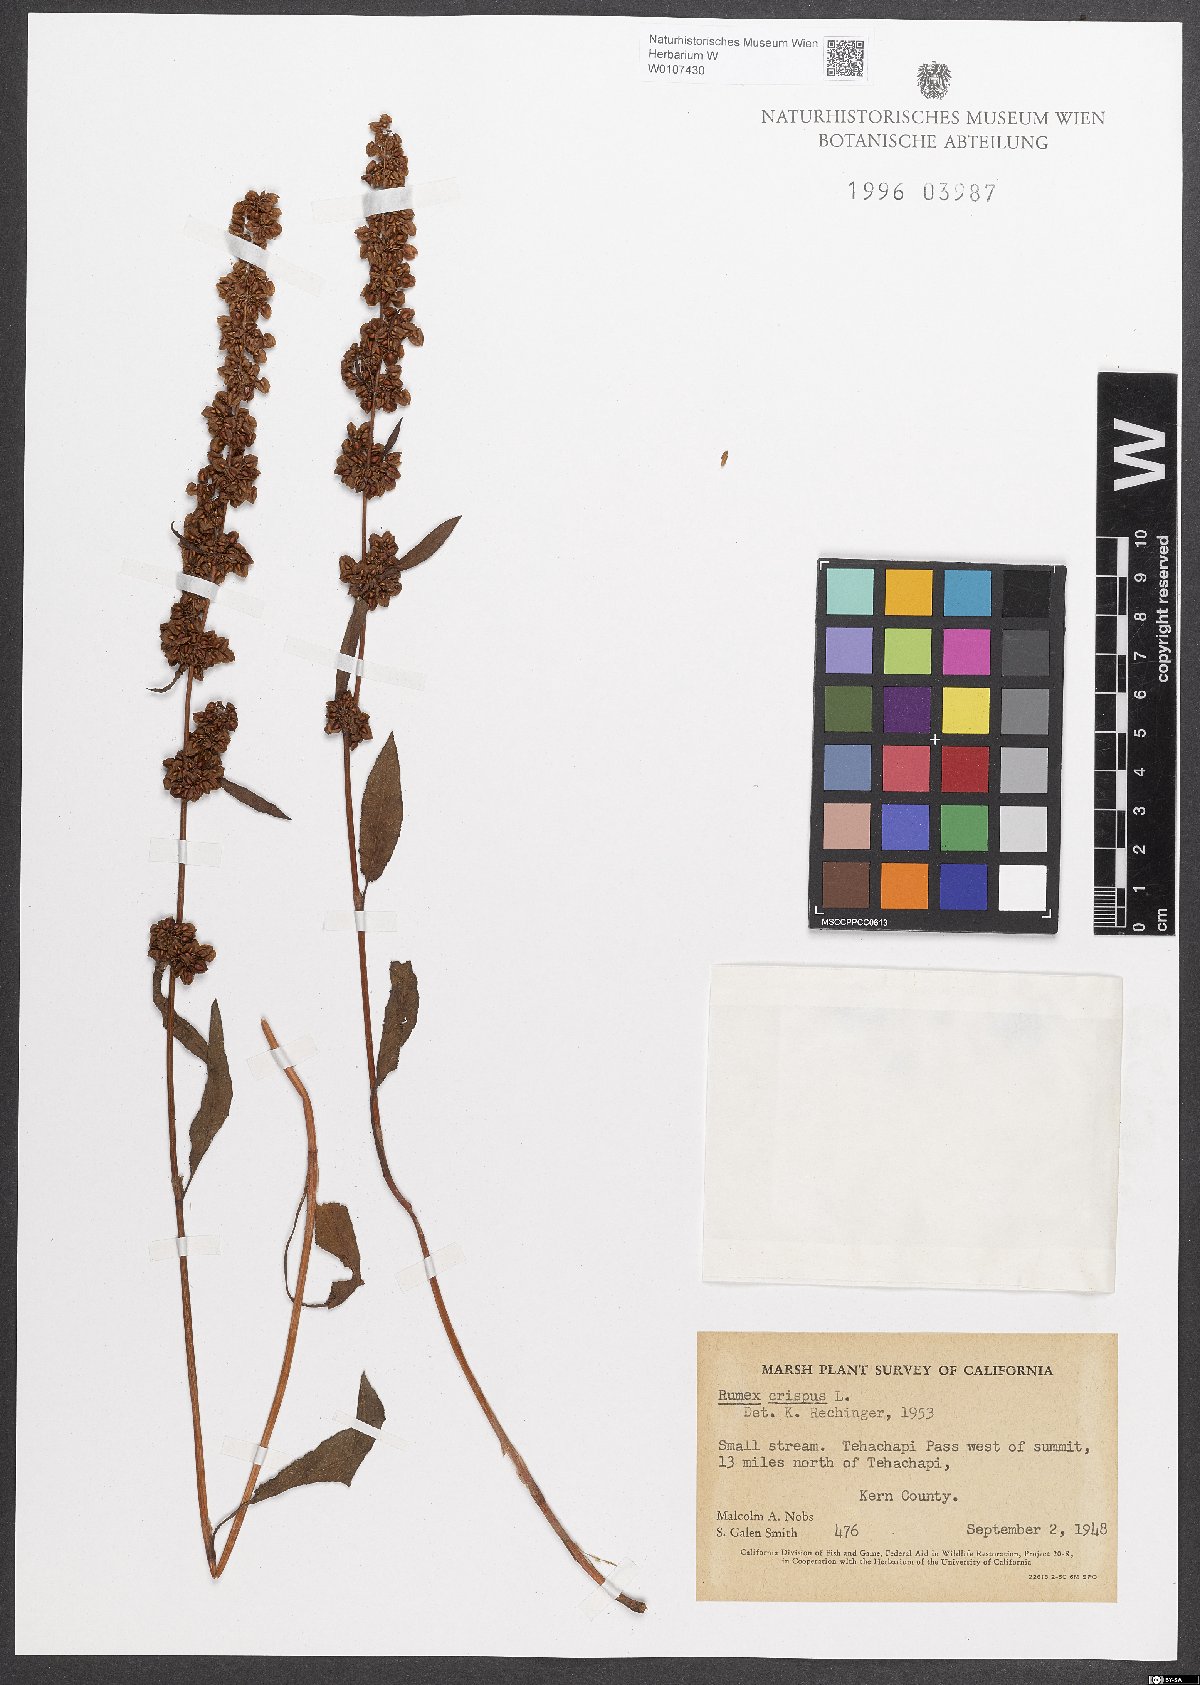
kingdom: Plantae
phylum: Tracheophyta
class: Magnoliopsida
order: Caryophyllales
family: Polygonaceae
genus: Rumex
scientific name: Rumex crispus
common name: Curled dock
